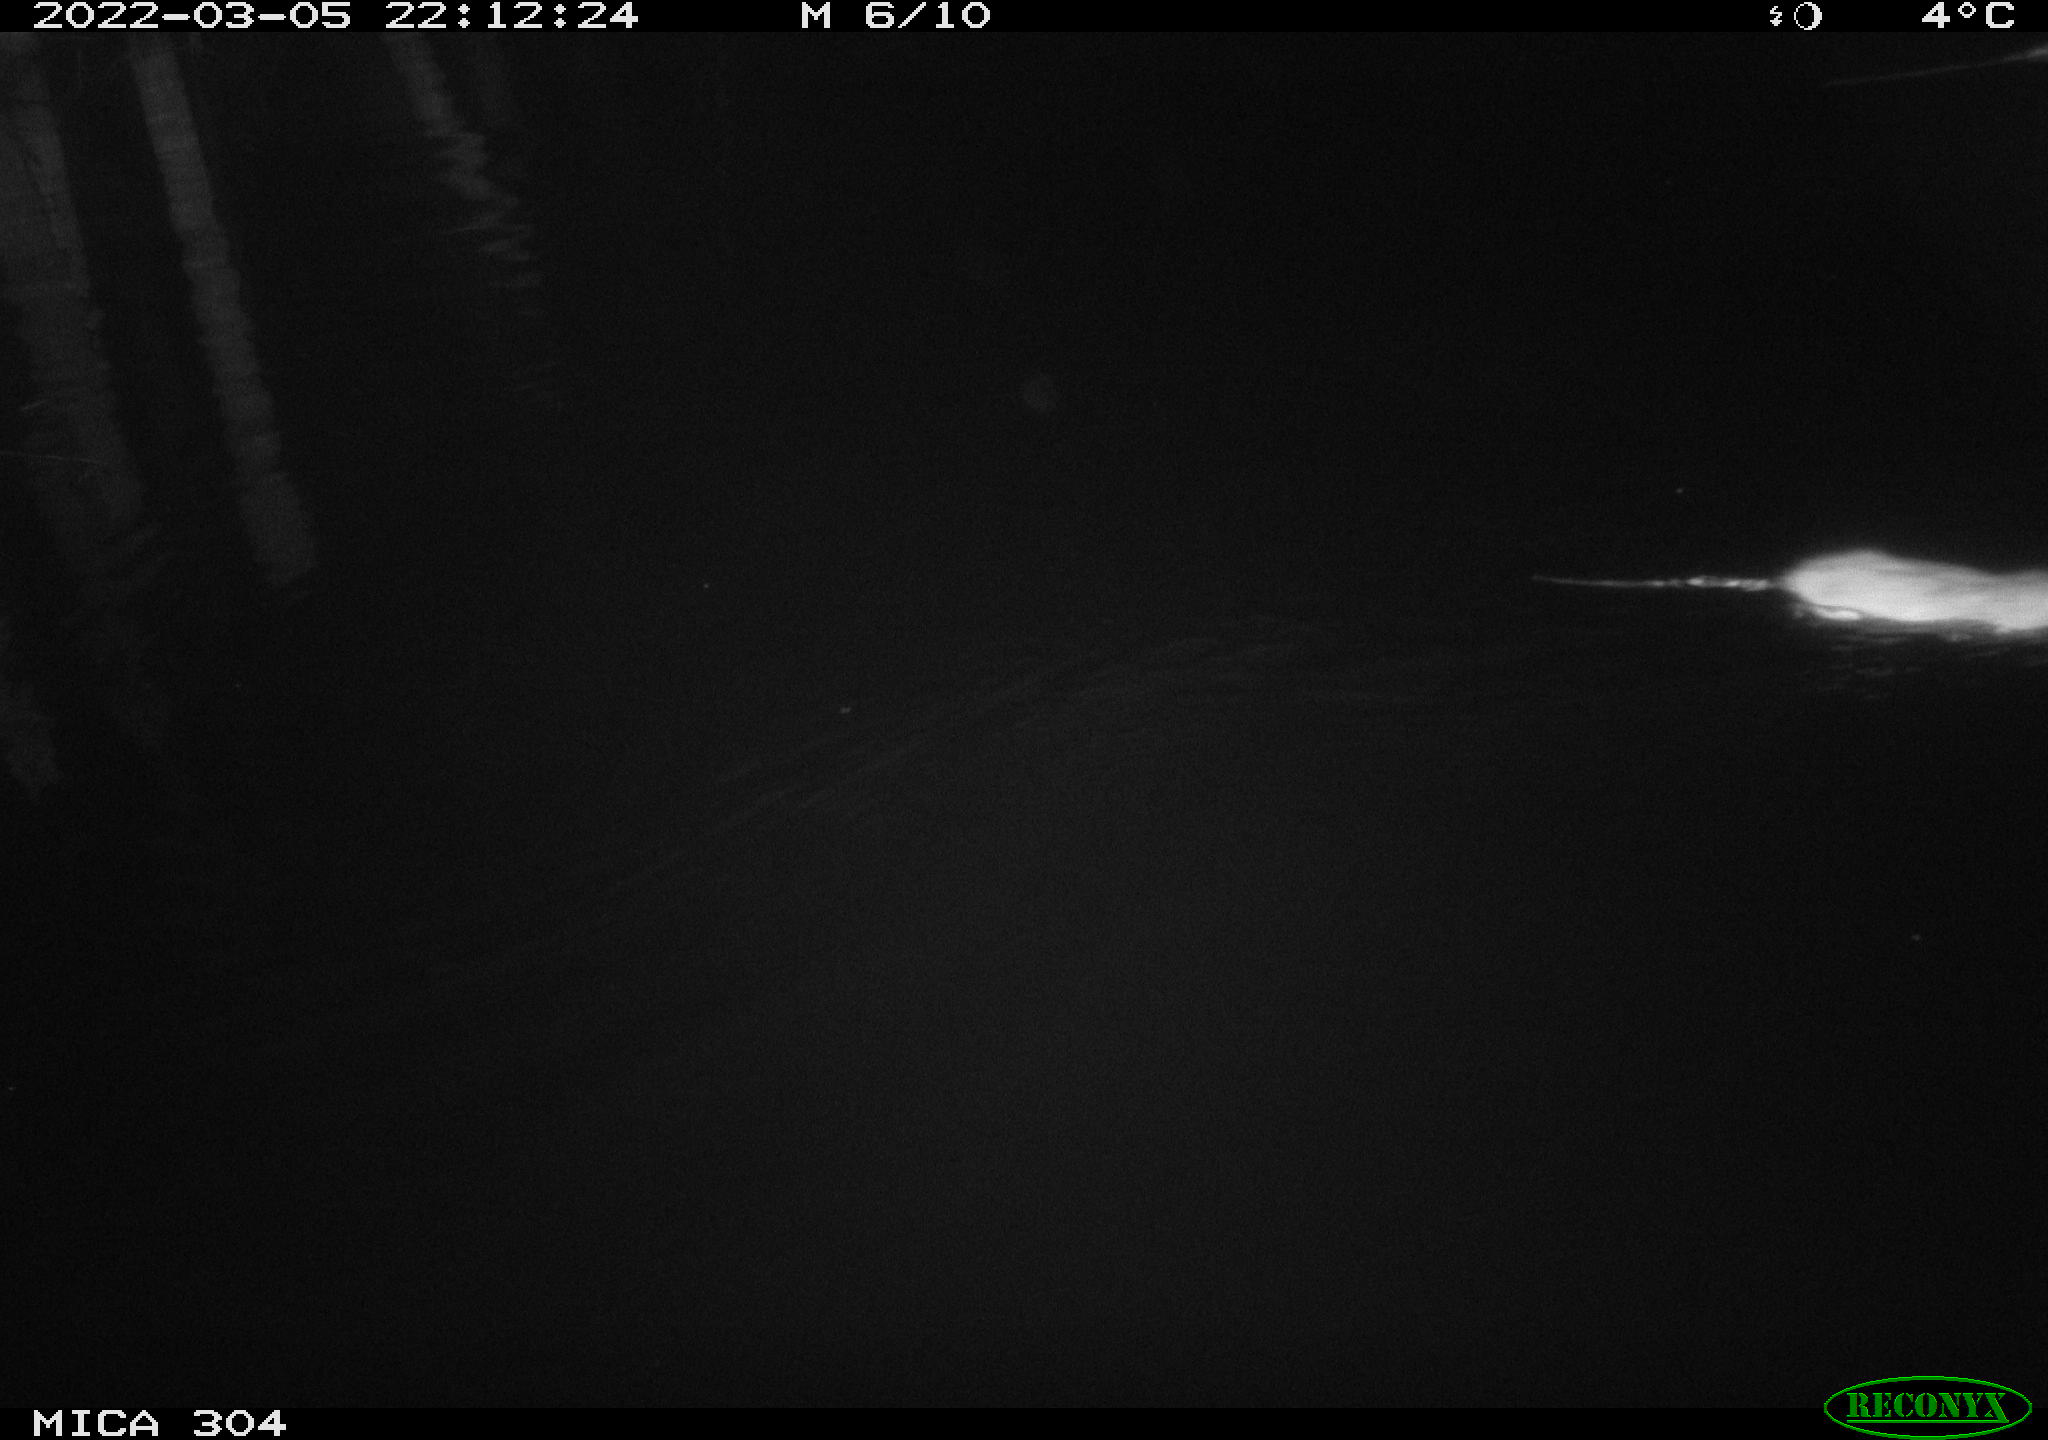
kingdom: Animalia
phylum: Chordata
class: Mammalia
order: Rodentia
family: Muridae
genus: Rattus
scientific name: Rattus norvegicus
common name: Brown rat
